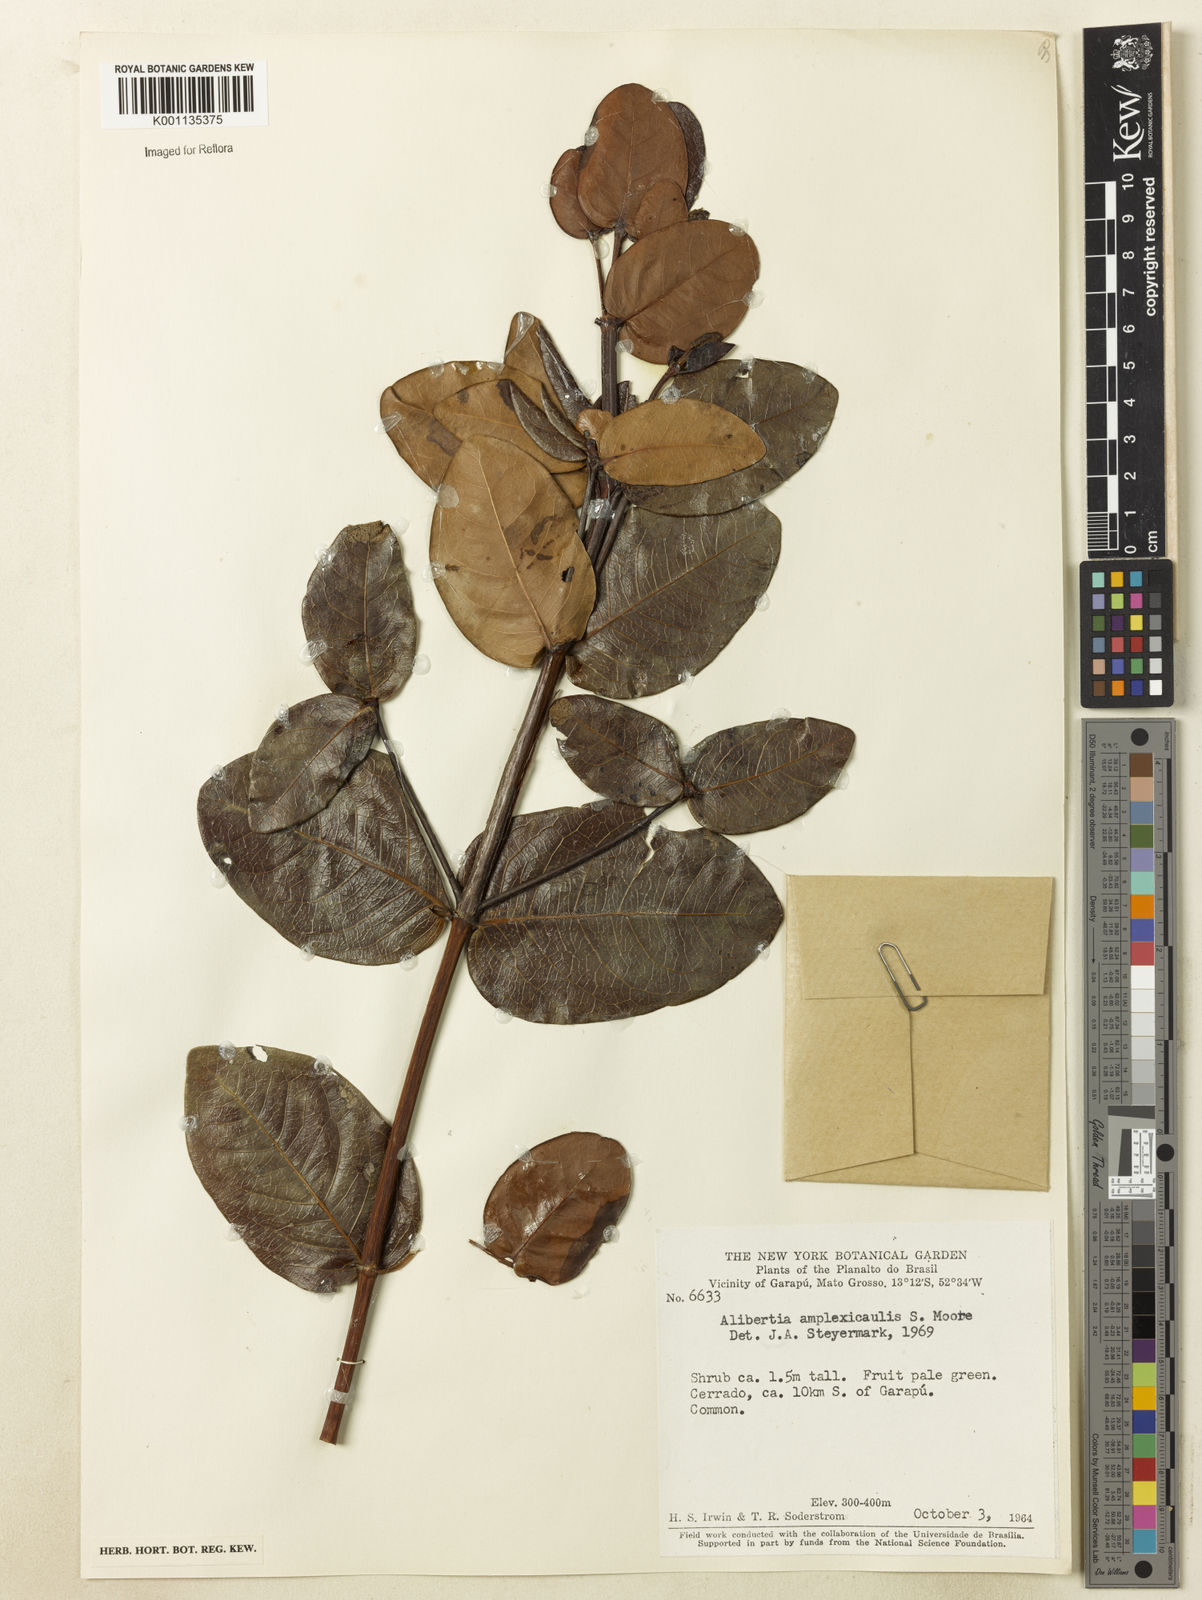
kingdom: Plantae
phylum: Tracheophyta
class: Magnoliopsida
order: Gentianales
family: Rubiaceae
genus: Cordiera
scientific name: Cordiera humilis
